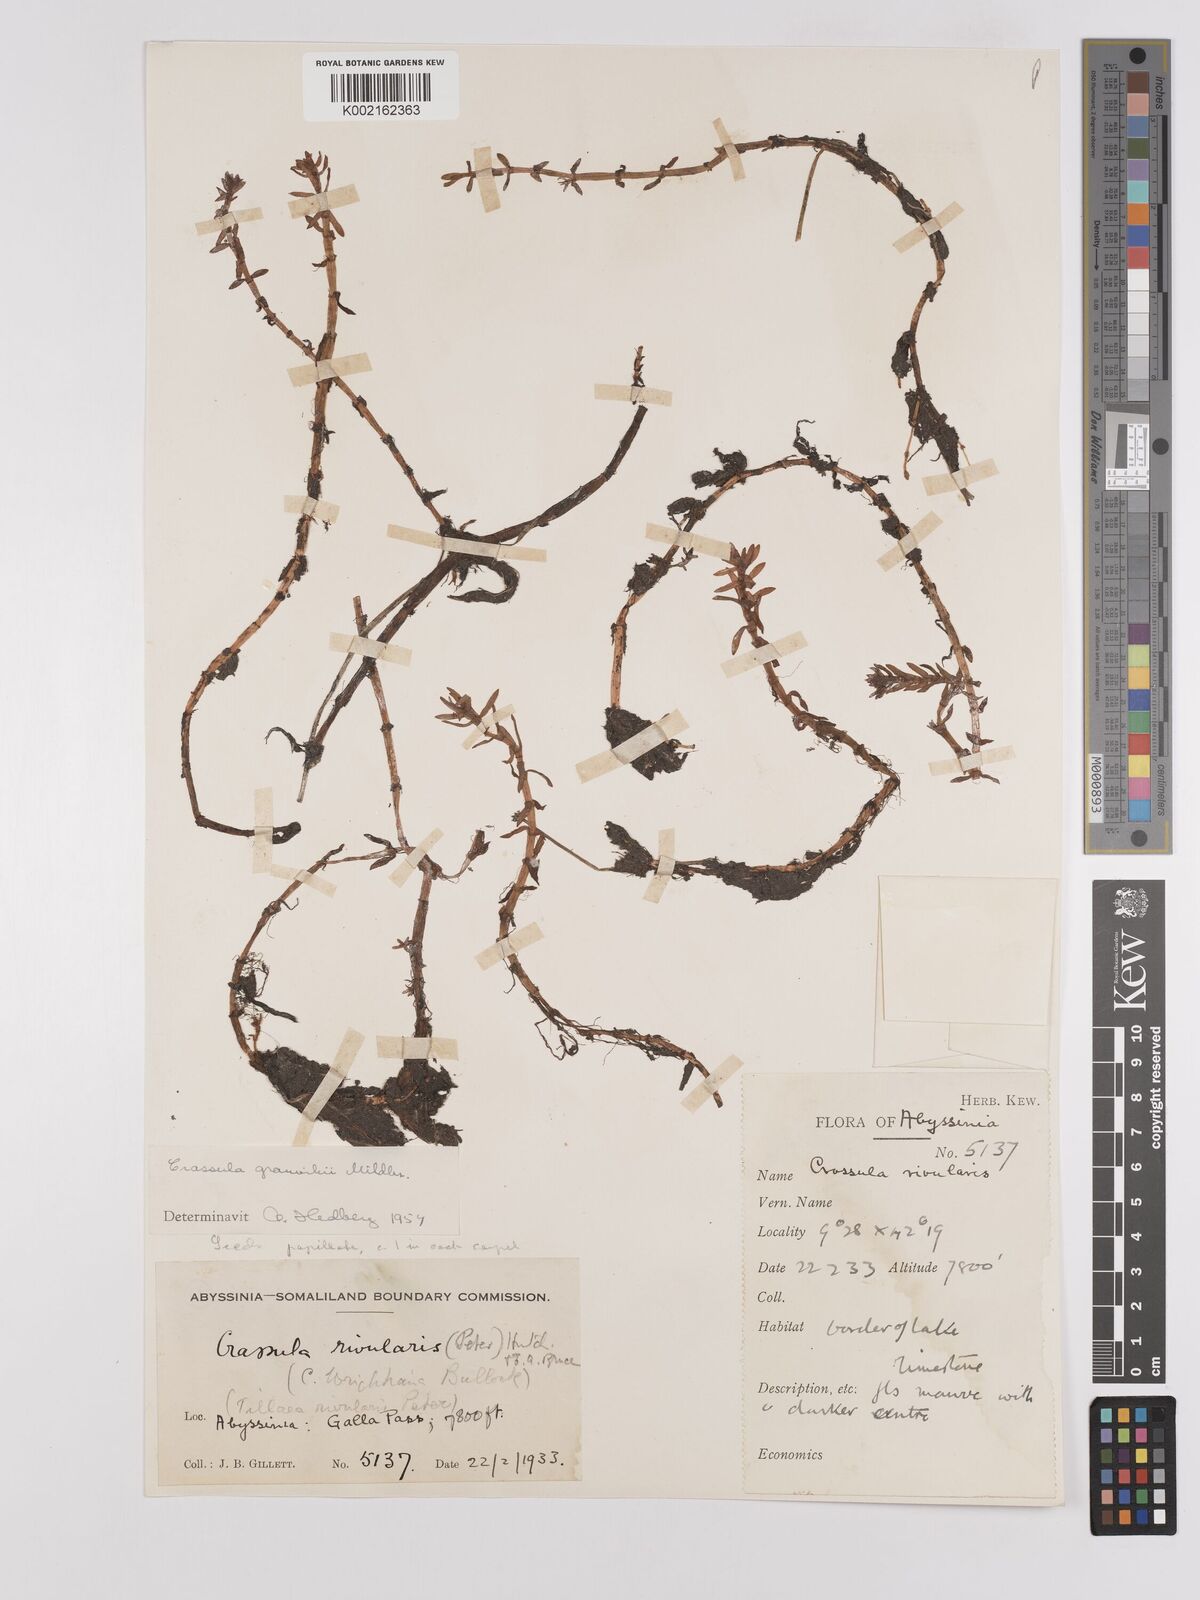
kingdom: Plantae
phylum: Tracheophyta
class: Magnoliopsida
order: Saxifragales
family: Crassulaceae
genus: Crassula
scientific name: Crassula granvikii
